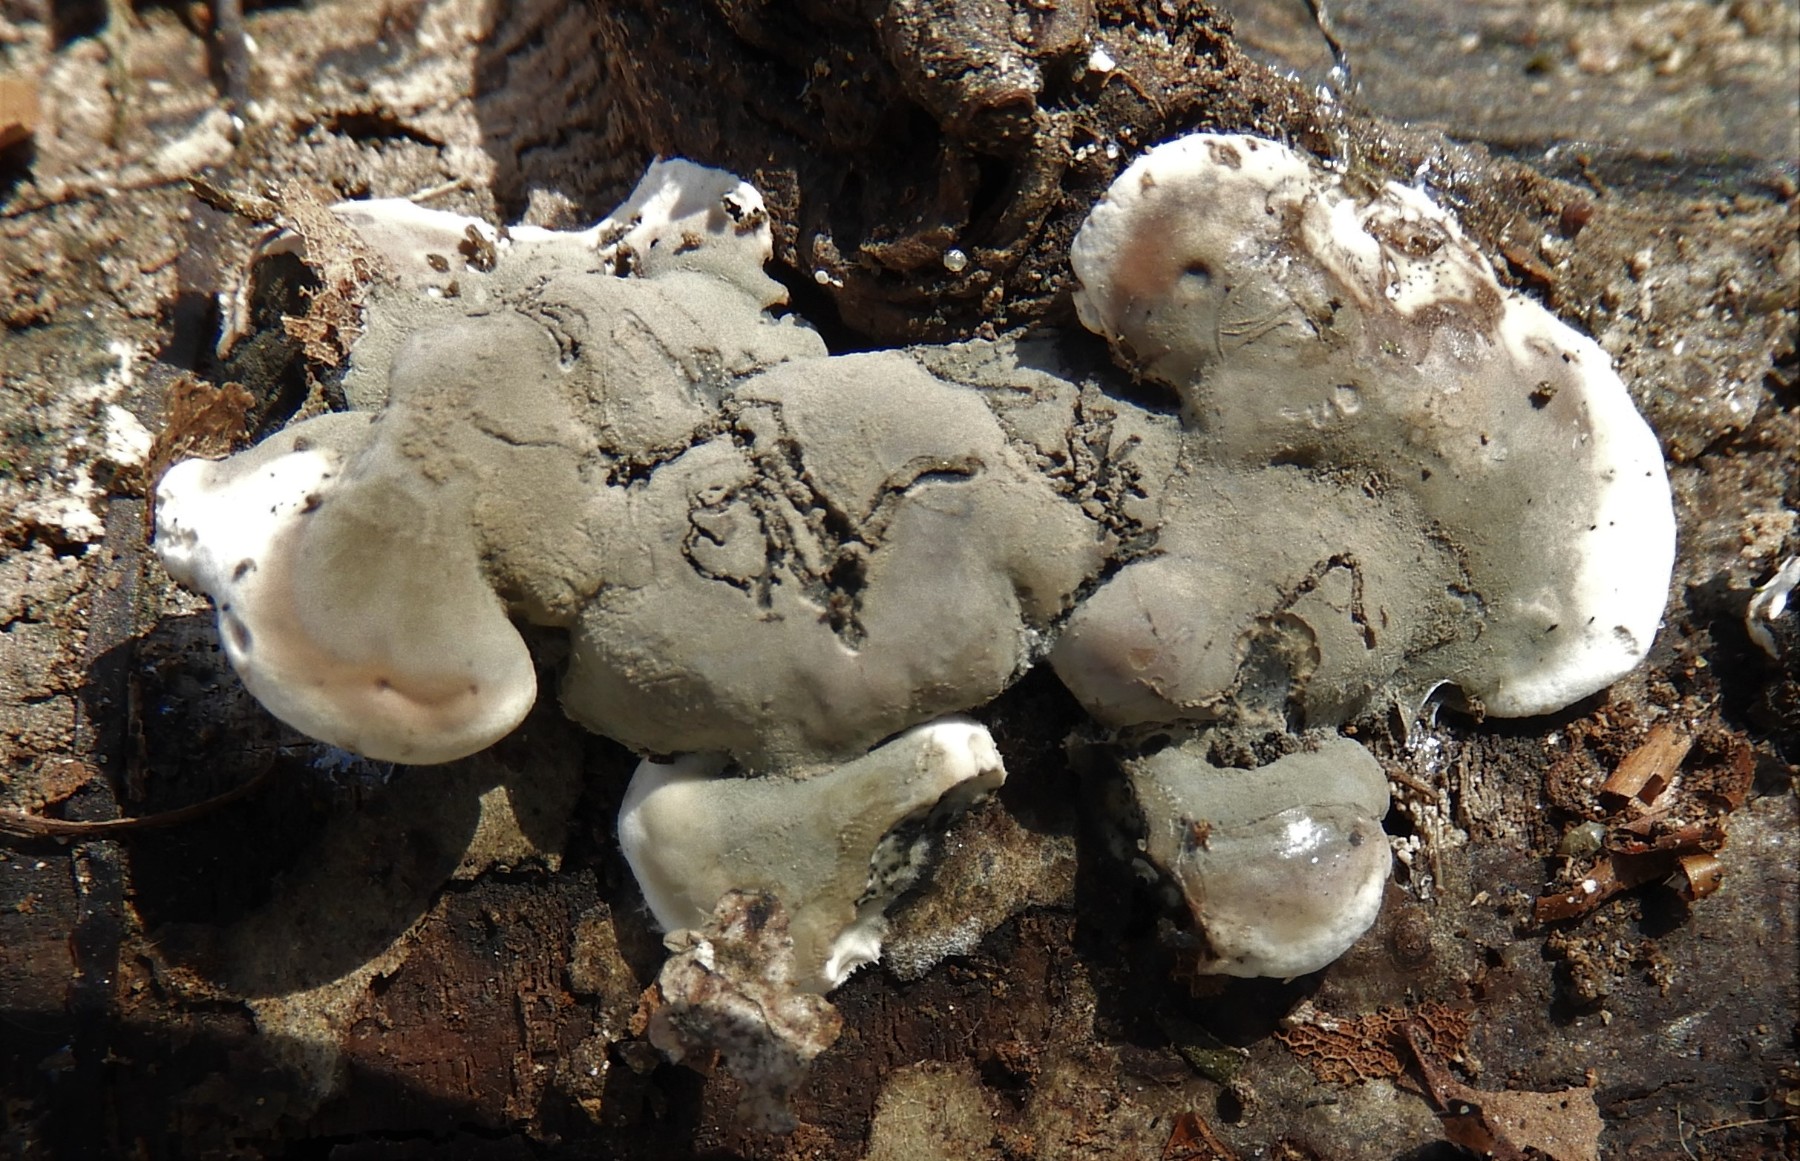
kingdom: Fungi
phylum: Ascomycota
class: Sordariomycetes
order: Xylariales
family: Xylariaceae
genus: Kretzschmaria
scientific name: Kretzschmaria deusta
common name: stor kulsvamp
